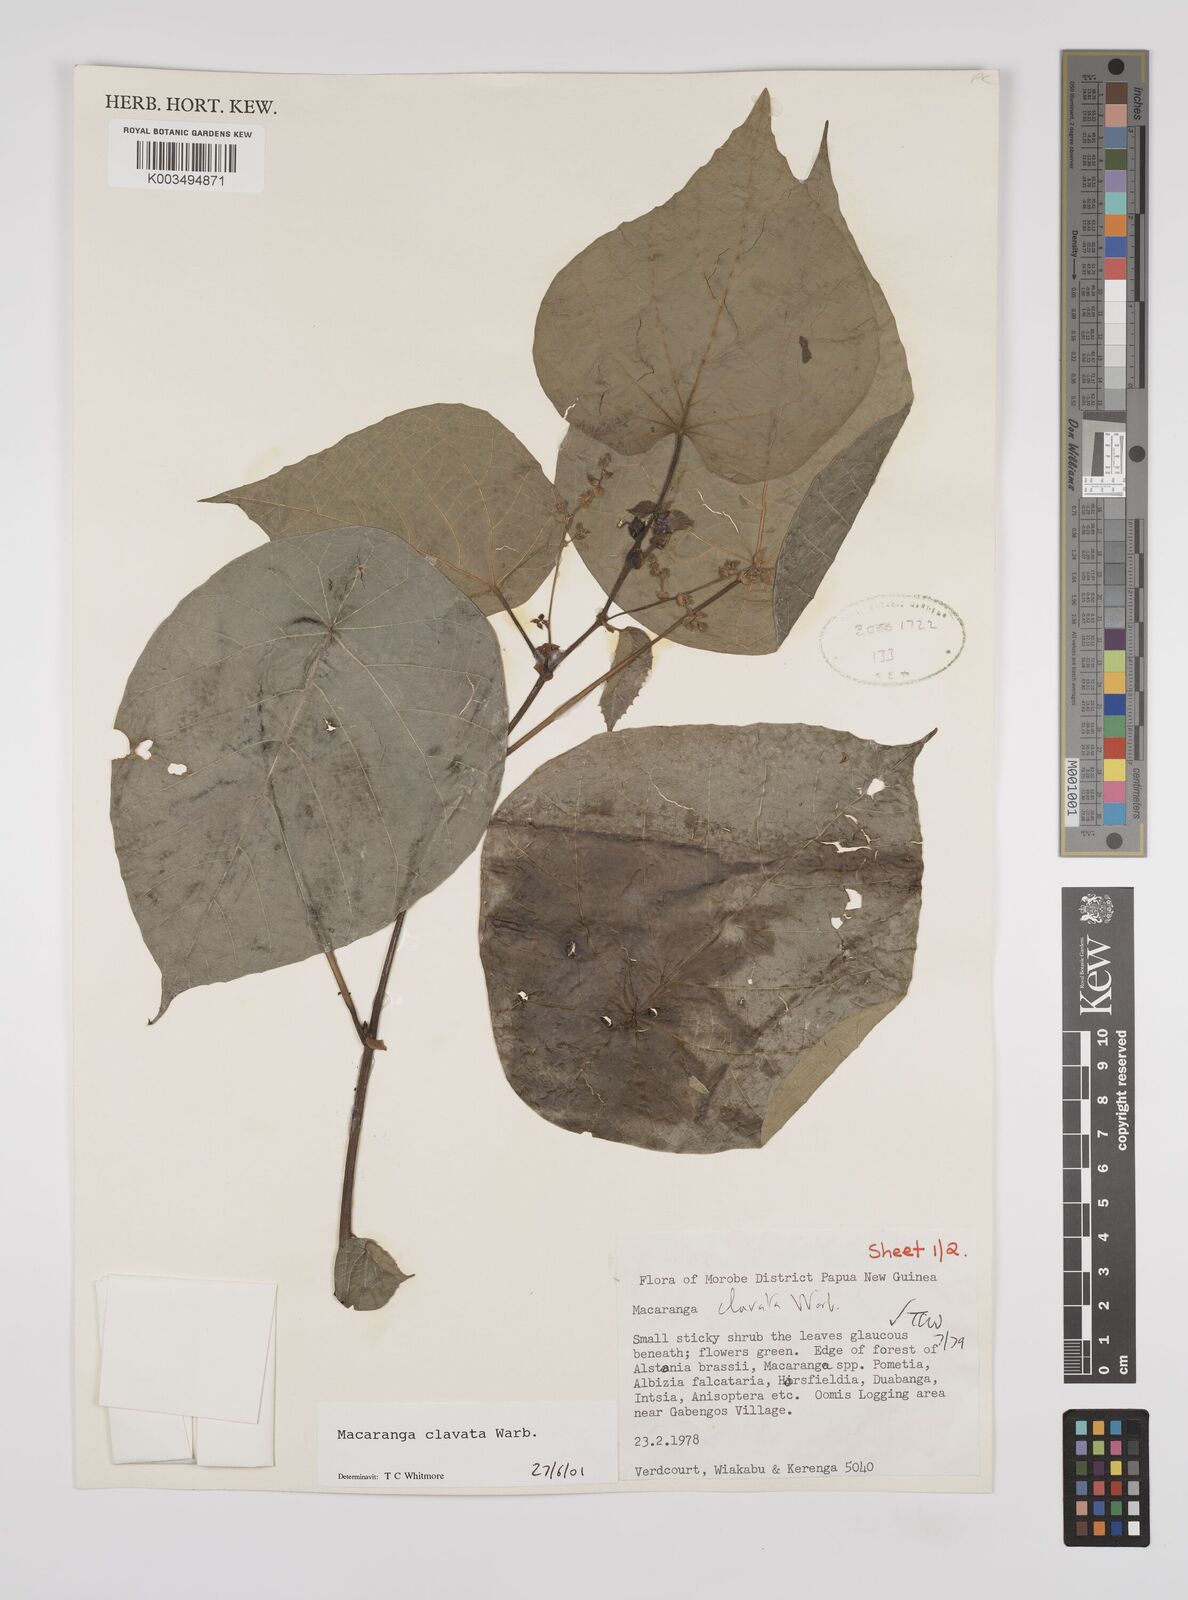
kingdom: Plantae
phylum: Tracheophyta
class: Magnoliopsida
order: Malpighiales
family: Euphorbiaceae
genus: Macaranga
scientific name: Macaranga clavata
